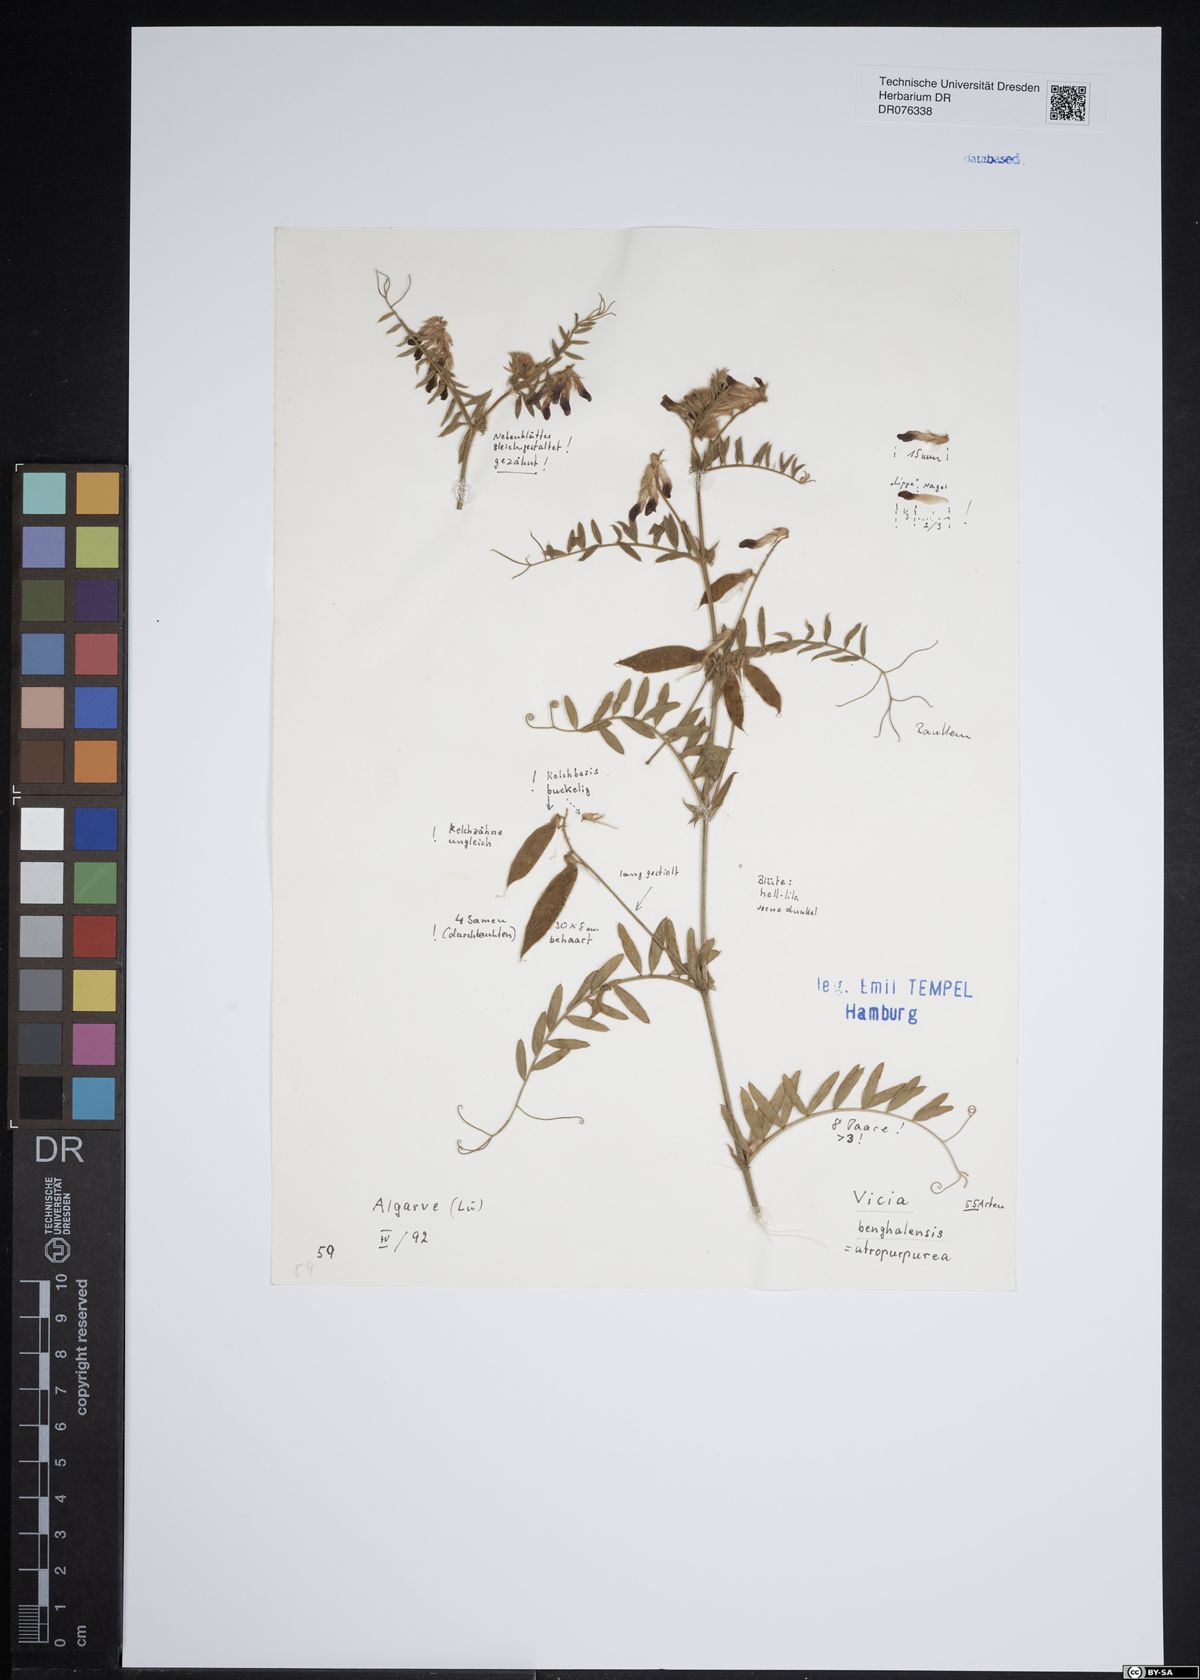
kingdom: Plantae
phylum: Tracheophyta
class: Magnoliopsida
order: Fabales
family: Fabaceae
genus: Vicia
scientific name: Vicia benghalensis
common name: Purple vetch
